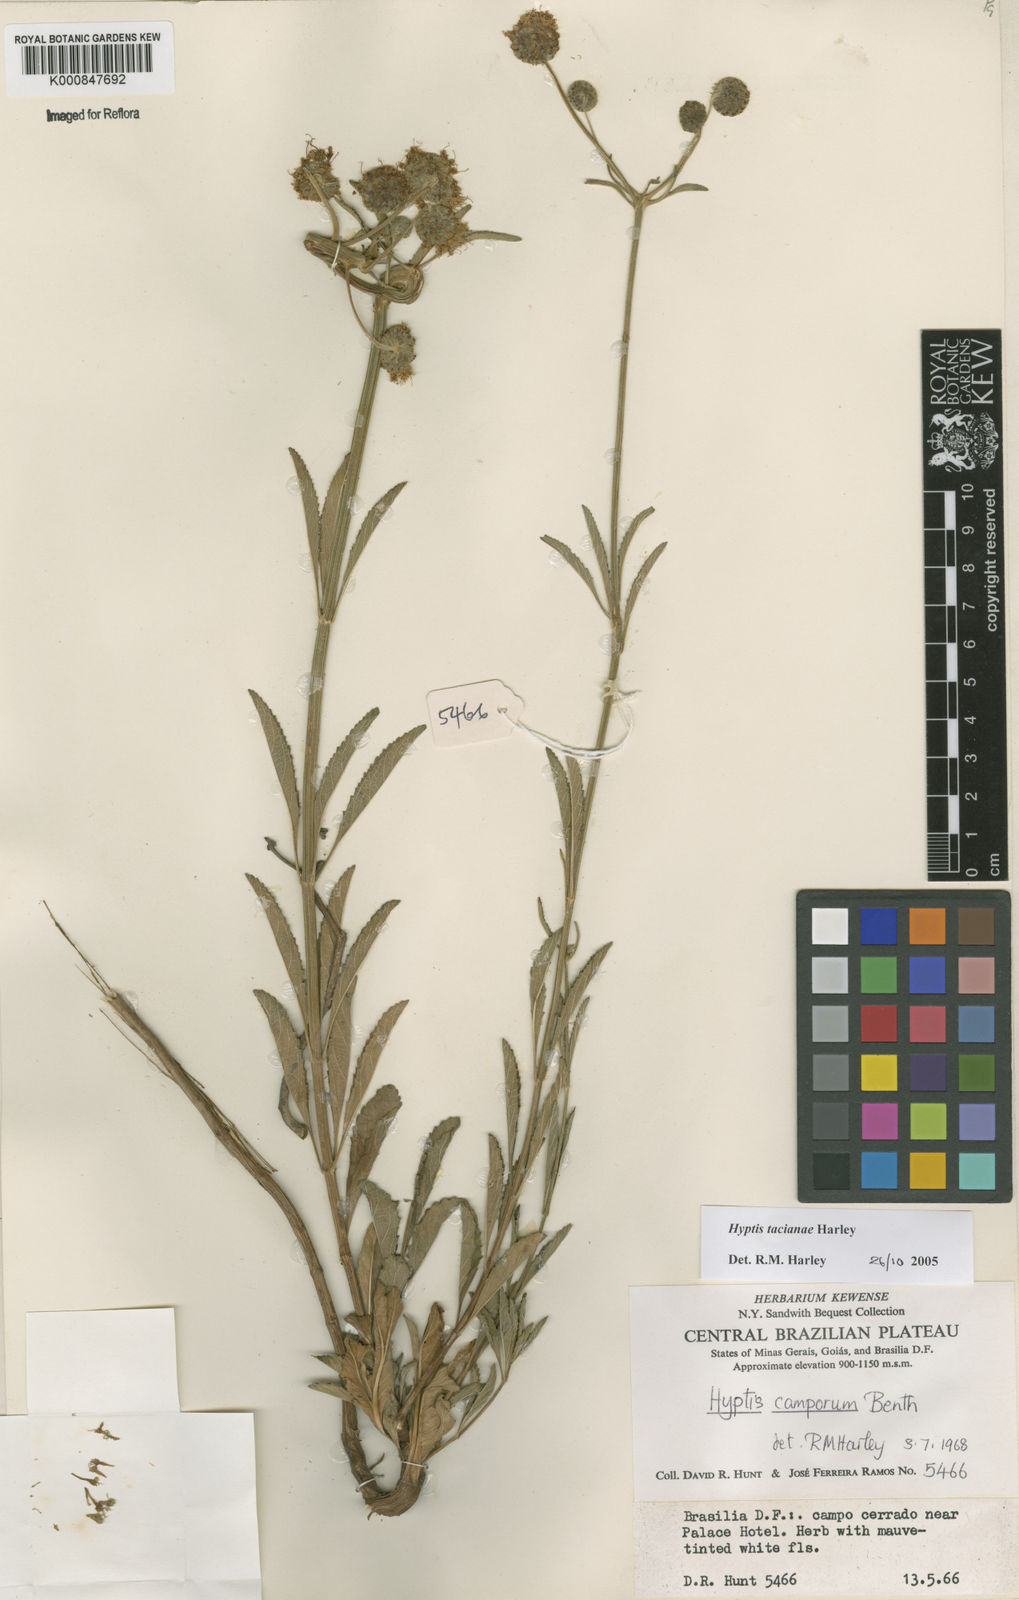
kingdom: Plantae
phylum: Tracheophyta
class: Magnoliopsida
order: Lamiales
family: Lamiaceae
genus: Cyanocephalus
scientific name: Cyanocephalus tacianae
